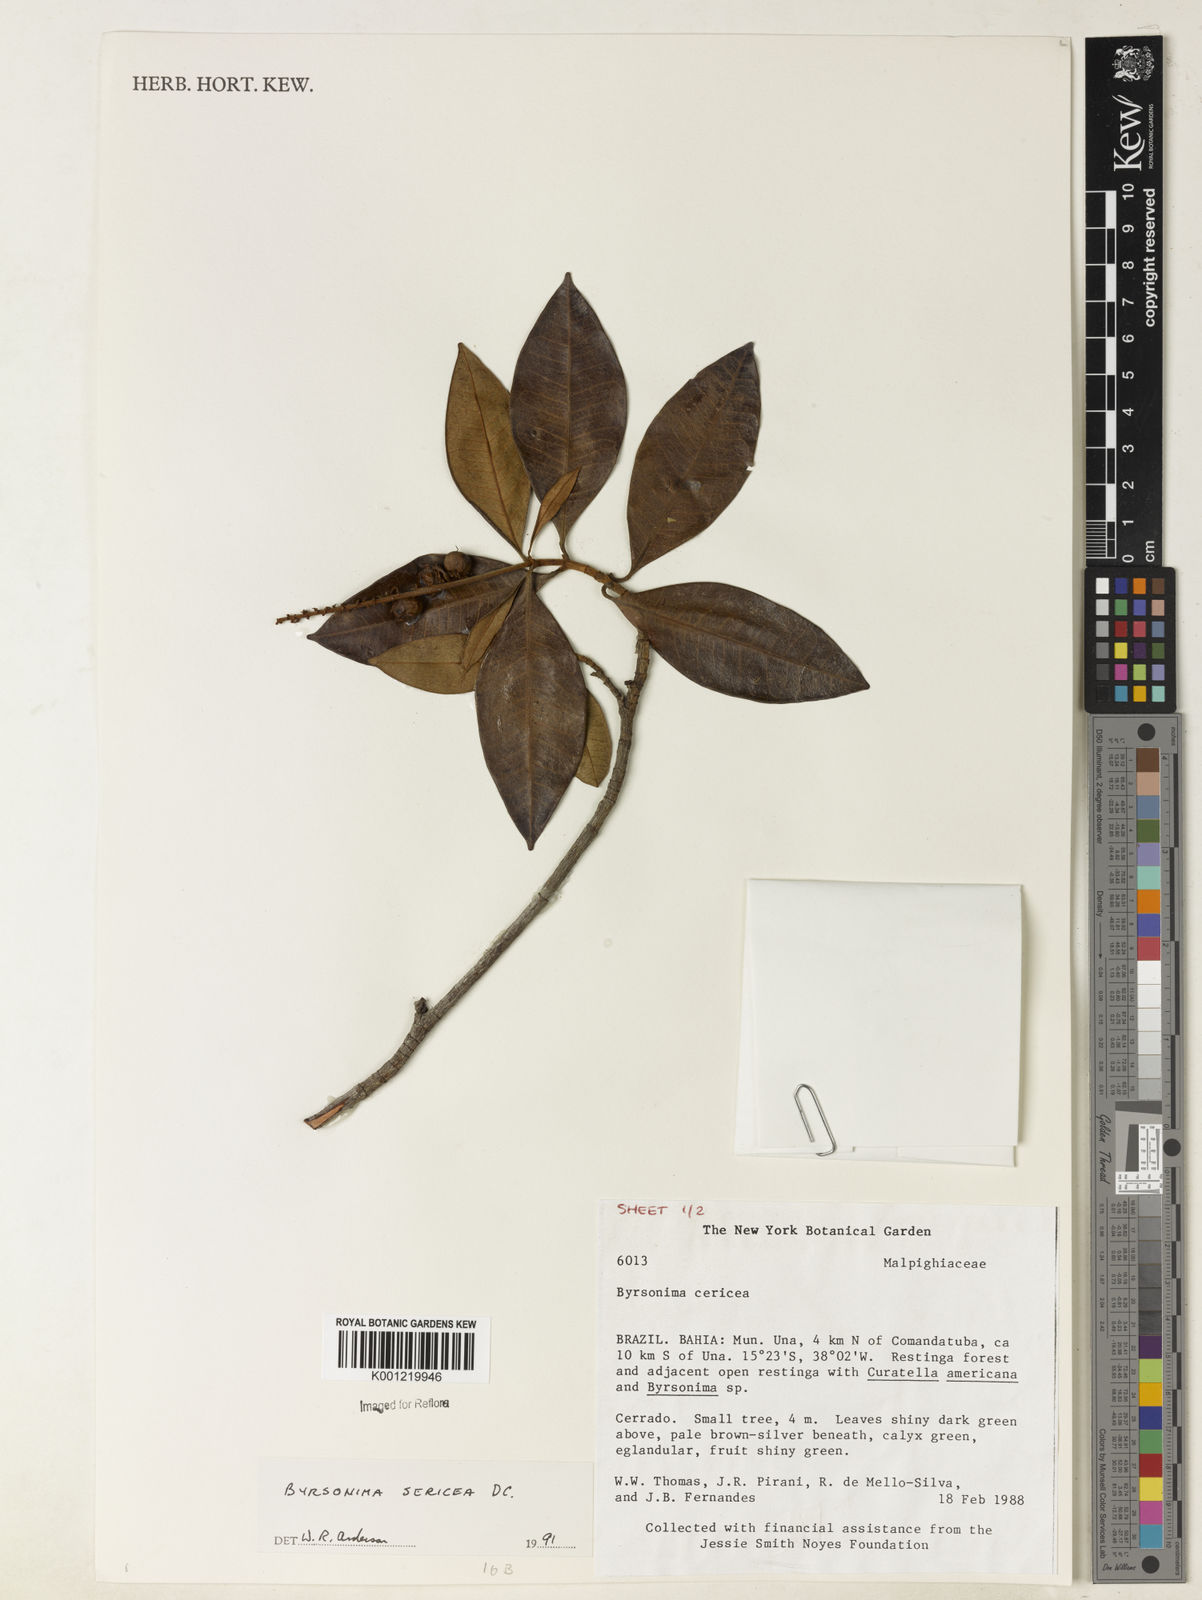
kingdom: Plantae
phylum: Tracheophyta
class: Magnoliopsida
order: Malpighiales
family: Malpighiaceae
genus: Byrsonima
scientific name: Byrsonima sericea
